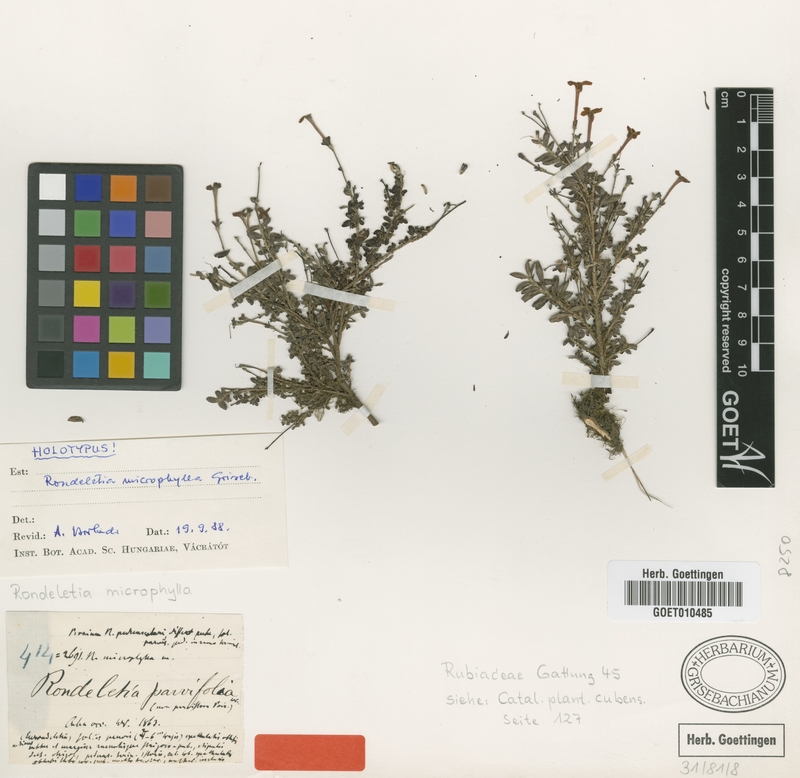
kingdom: Plantae
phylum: Tracheophyta
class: Magnoliopsida
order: Gentianales
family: Rubiaceae
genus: Rondeletia
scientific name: Rondeletia microphylla
